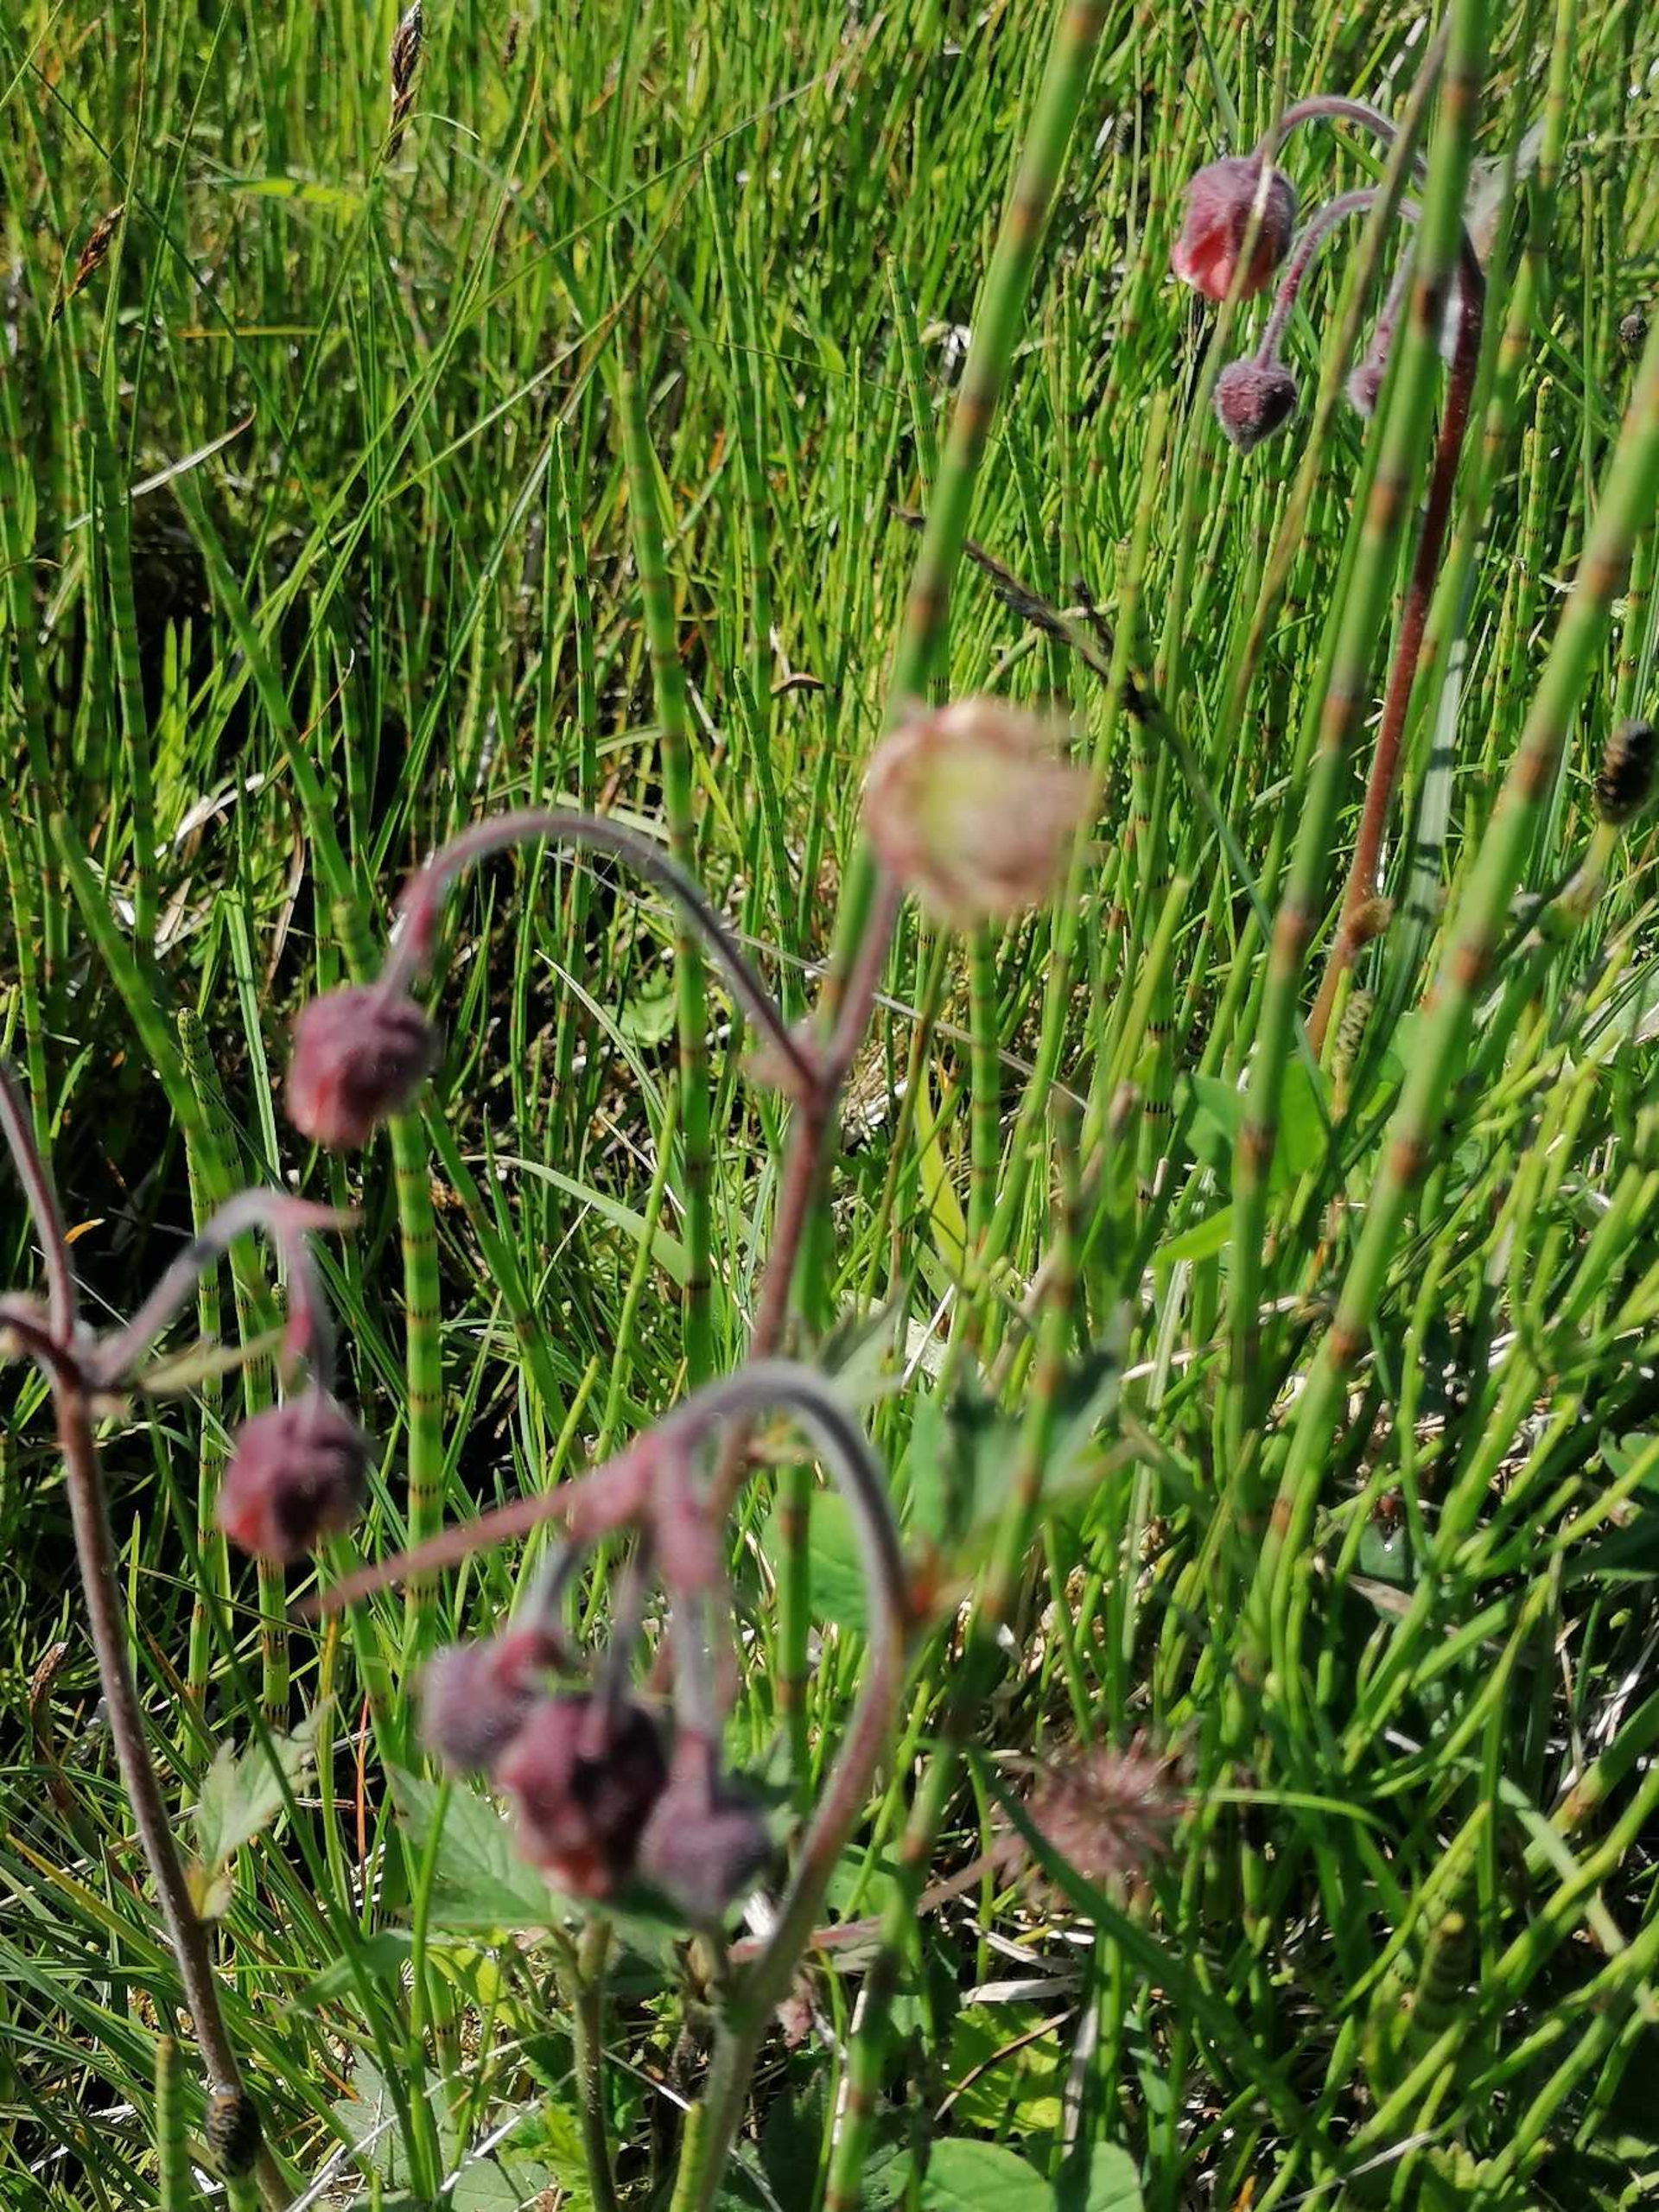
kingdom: Plantae
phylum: Tracheophyta
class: Magnoliopsida
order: Rosales
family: Rosaceae
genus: Geum
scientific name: Geum rivale
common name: Eng-nellikerod
